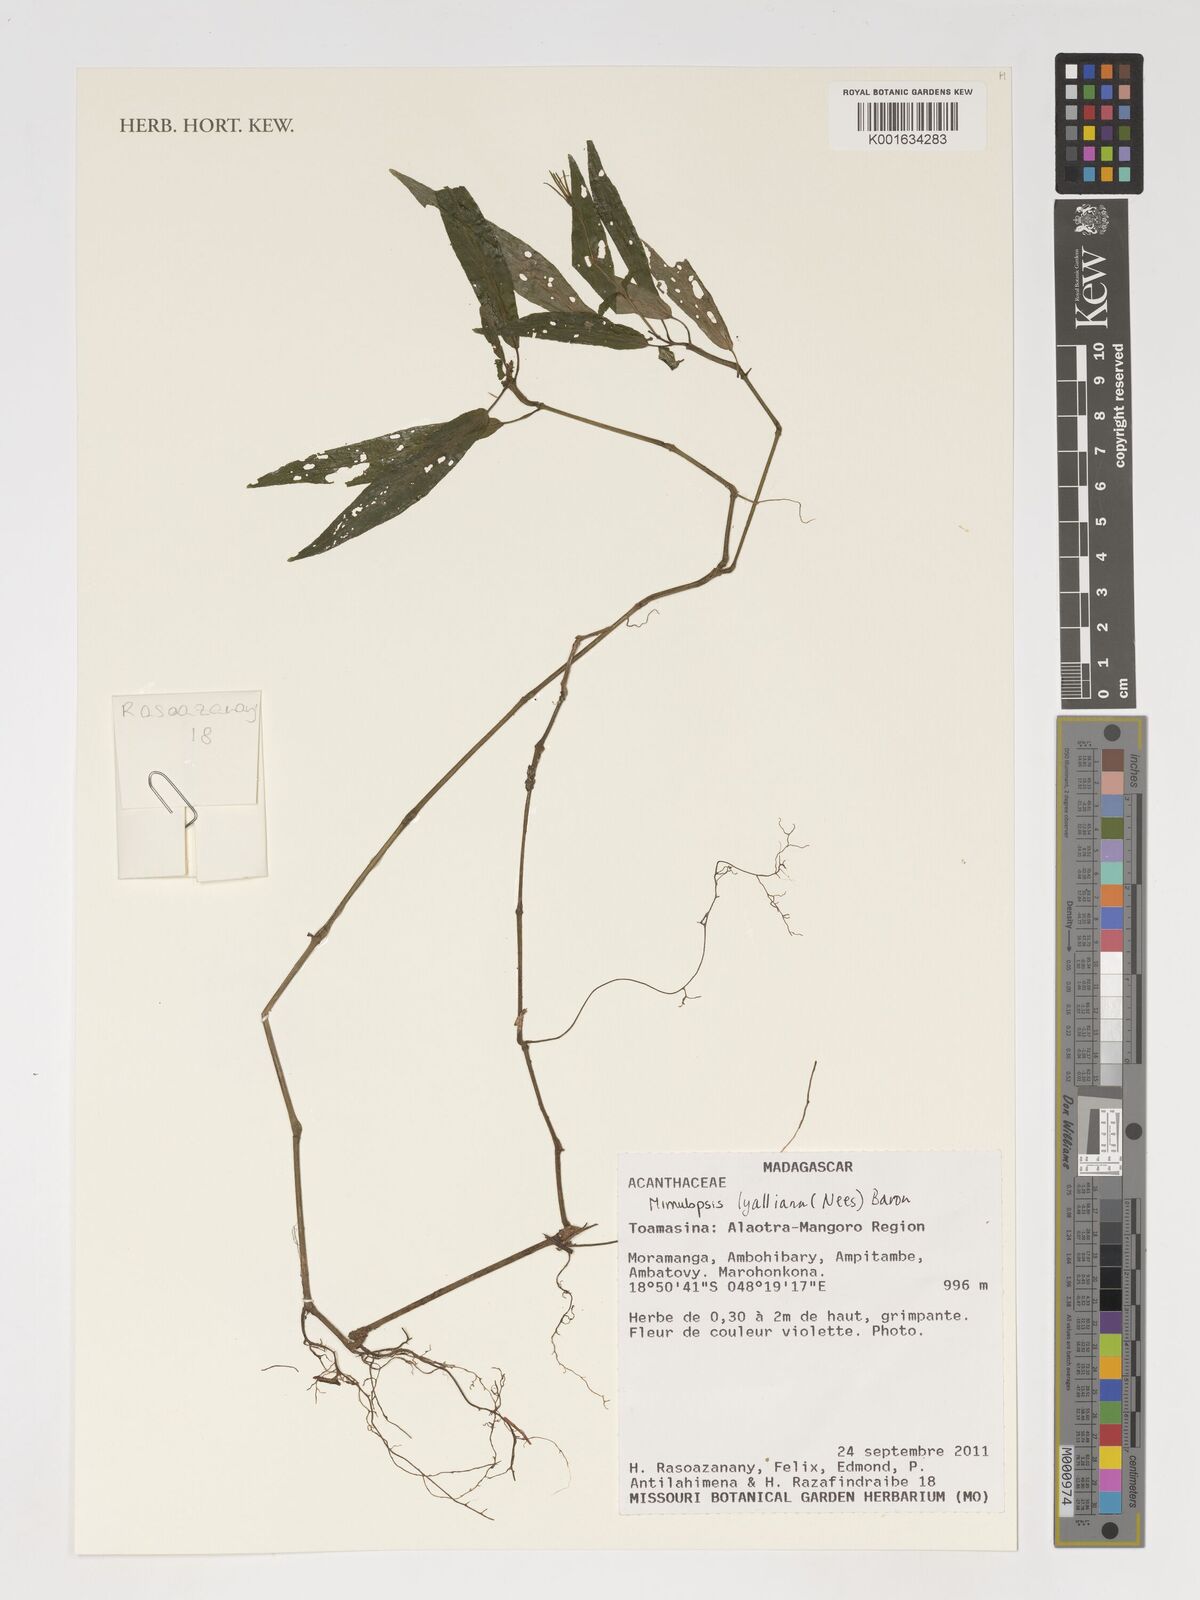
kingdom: Plantae
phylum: Tracheophyta
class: Magnoliopsida
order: Lamiales
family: Acanthaceae
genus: Mimulopsis
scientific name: Mimulopsis
